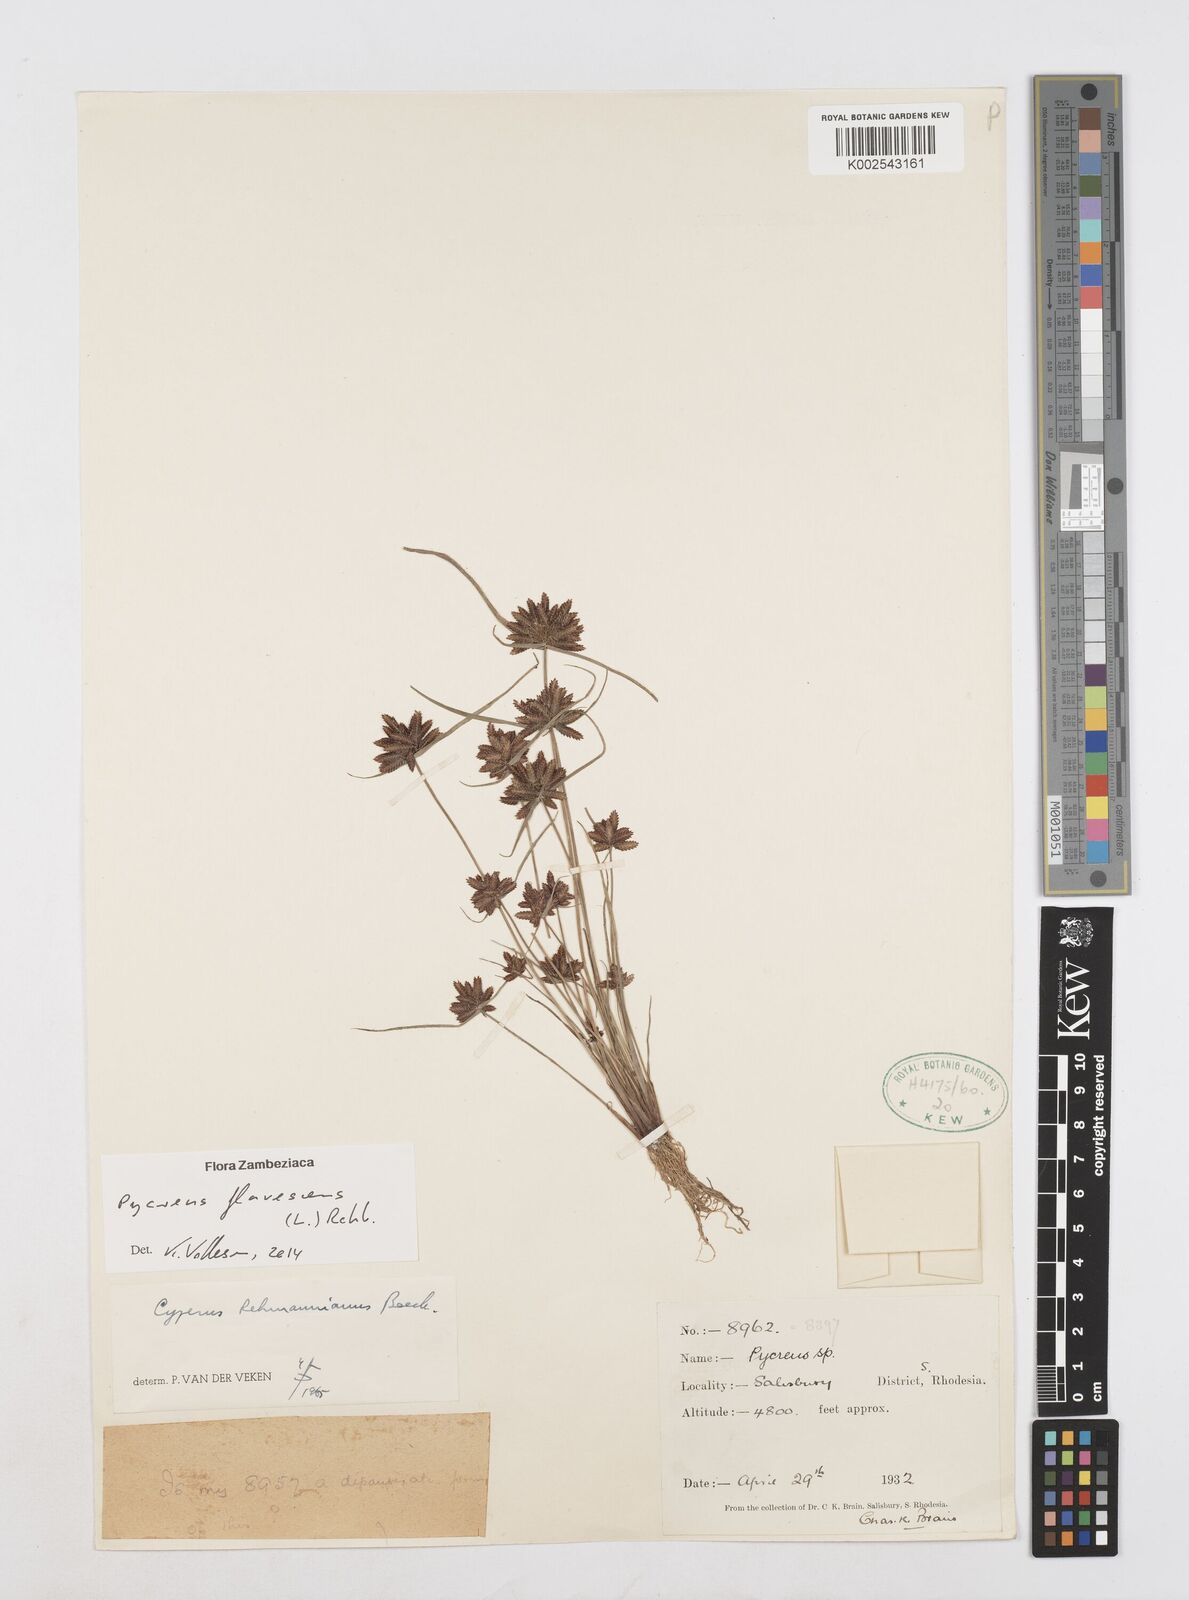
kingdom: Plantae
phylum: Tracheophyta
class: Liliopsida
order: Poales
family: Cyperaceae
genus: Cyperus
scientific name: Cyperus flavescens
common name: Yellow galingale
